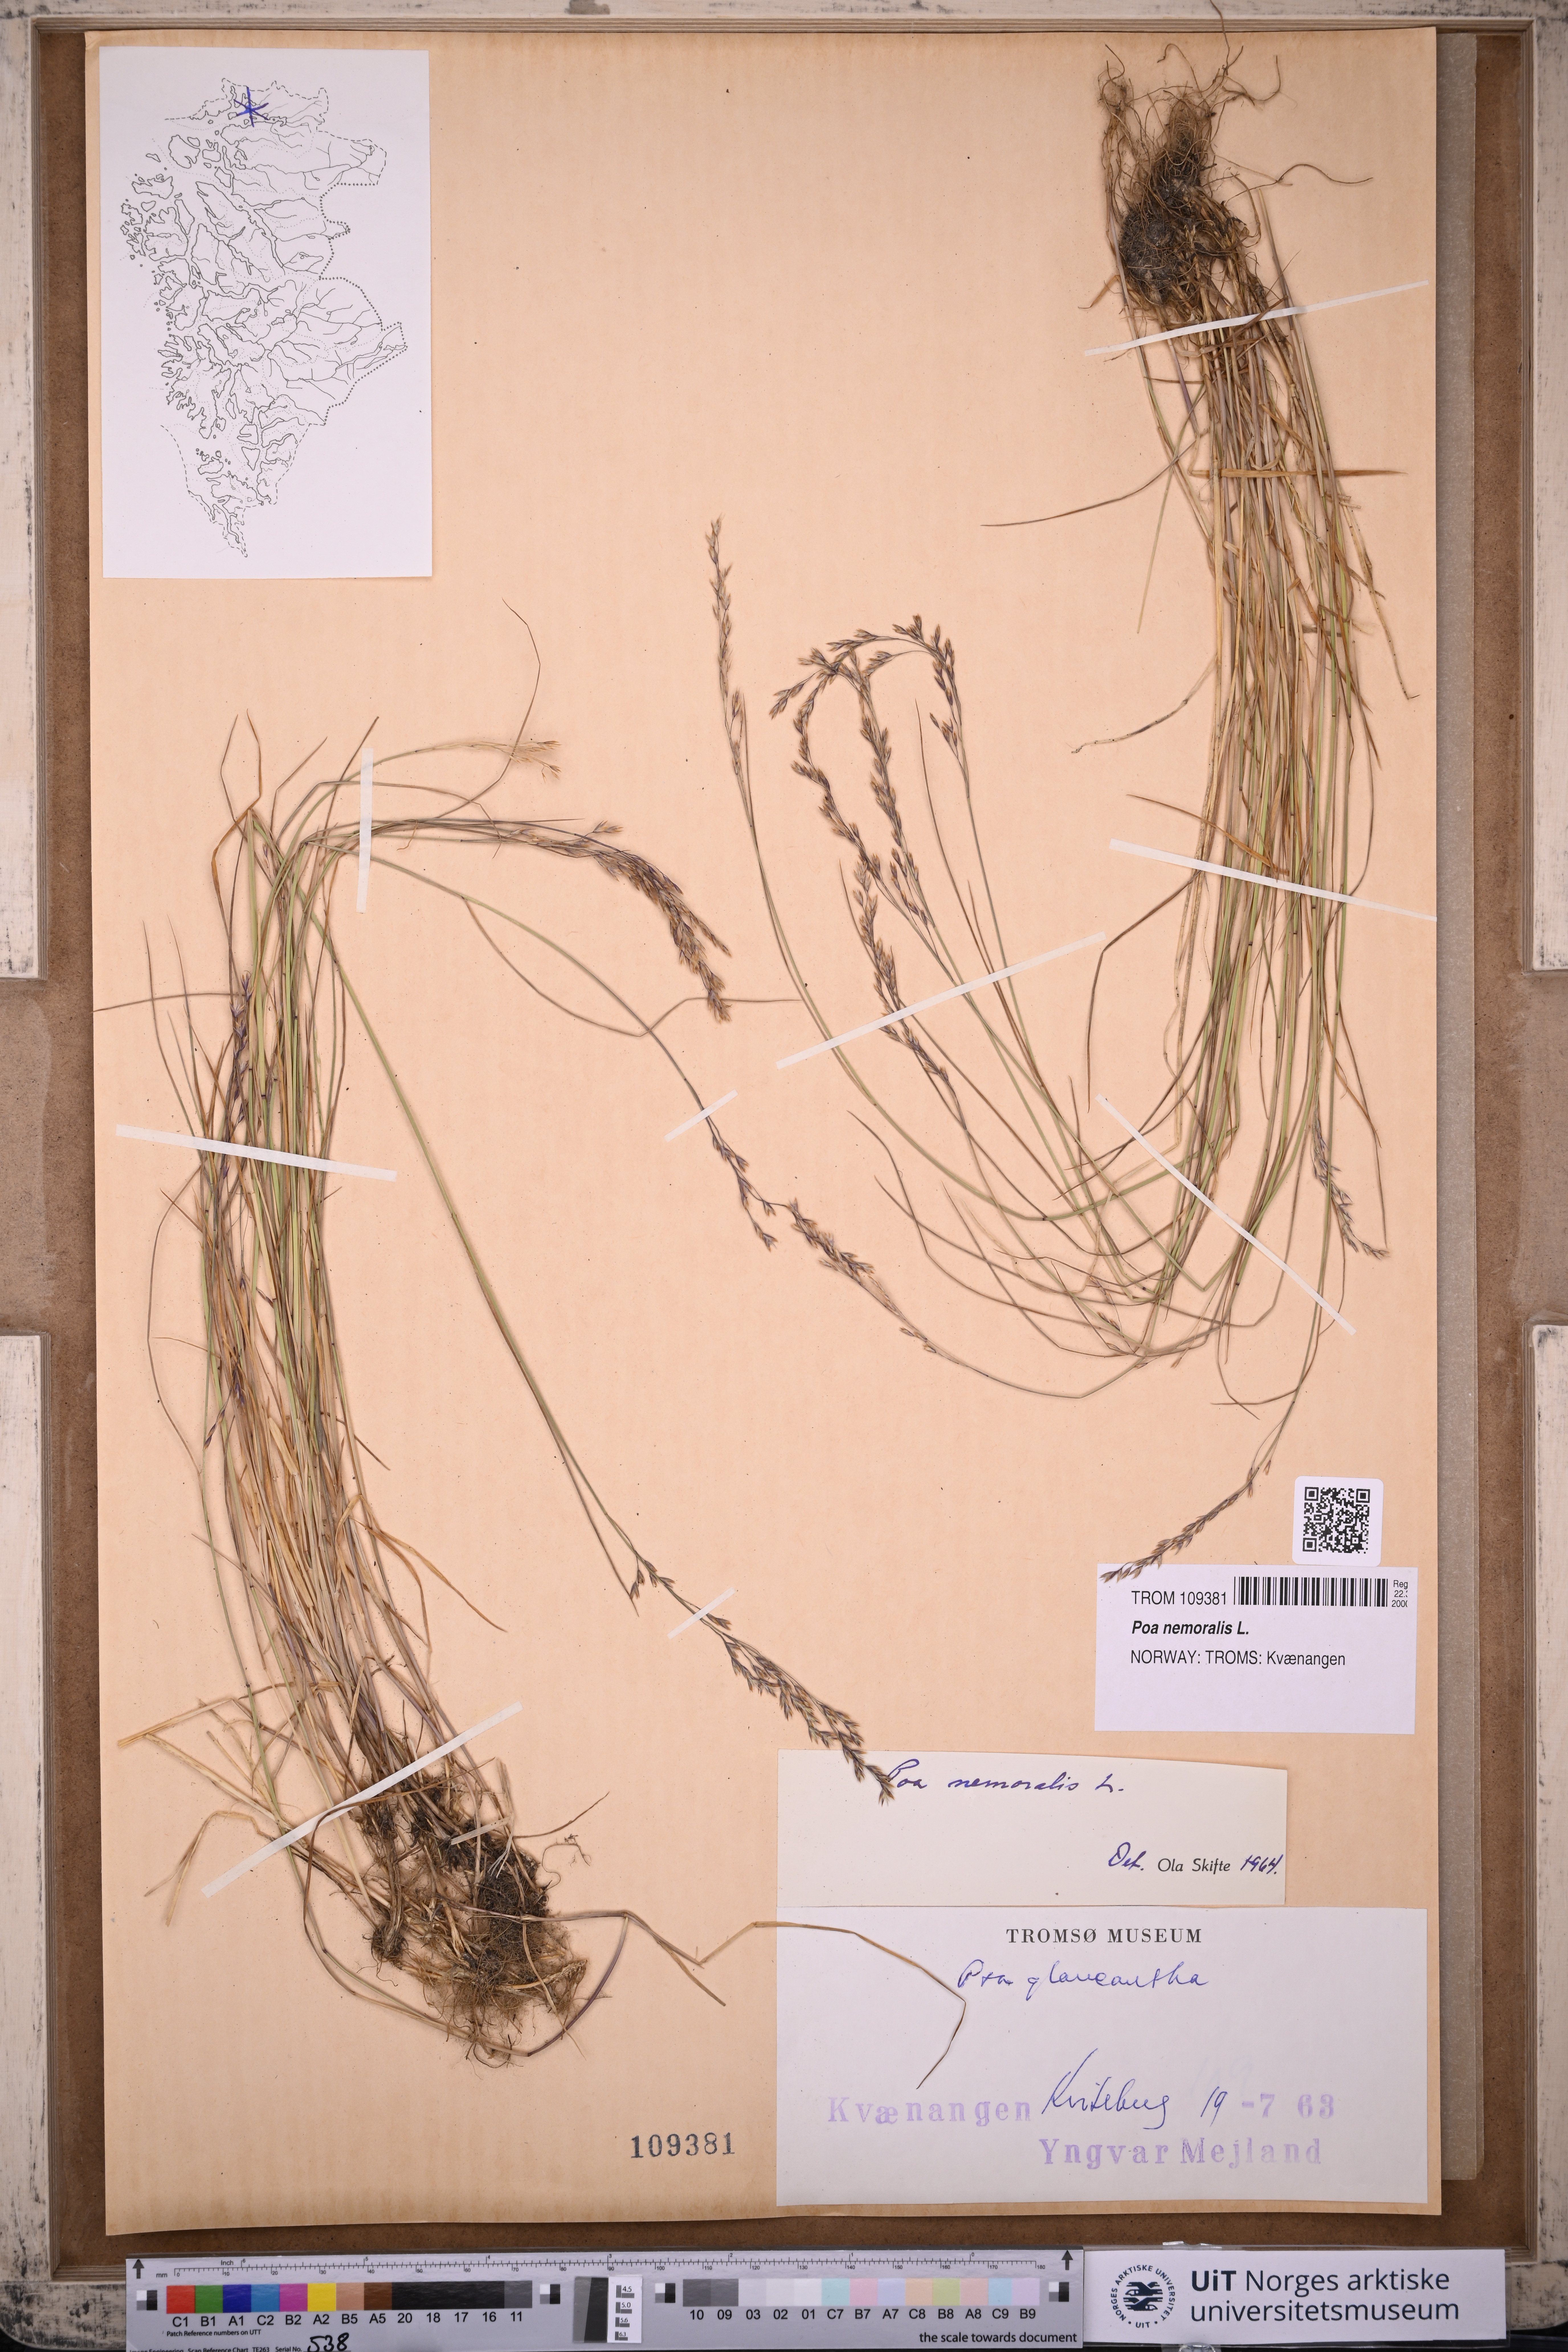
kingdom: Plantae
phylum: Tracheophyta
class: Liliopsida
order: Poales
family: Poaceae
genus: Poa
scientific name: Poa nemoralis
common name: Wood bluegrass
